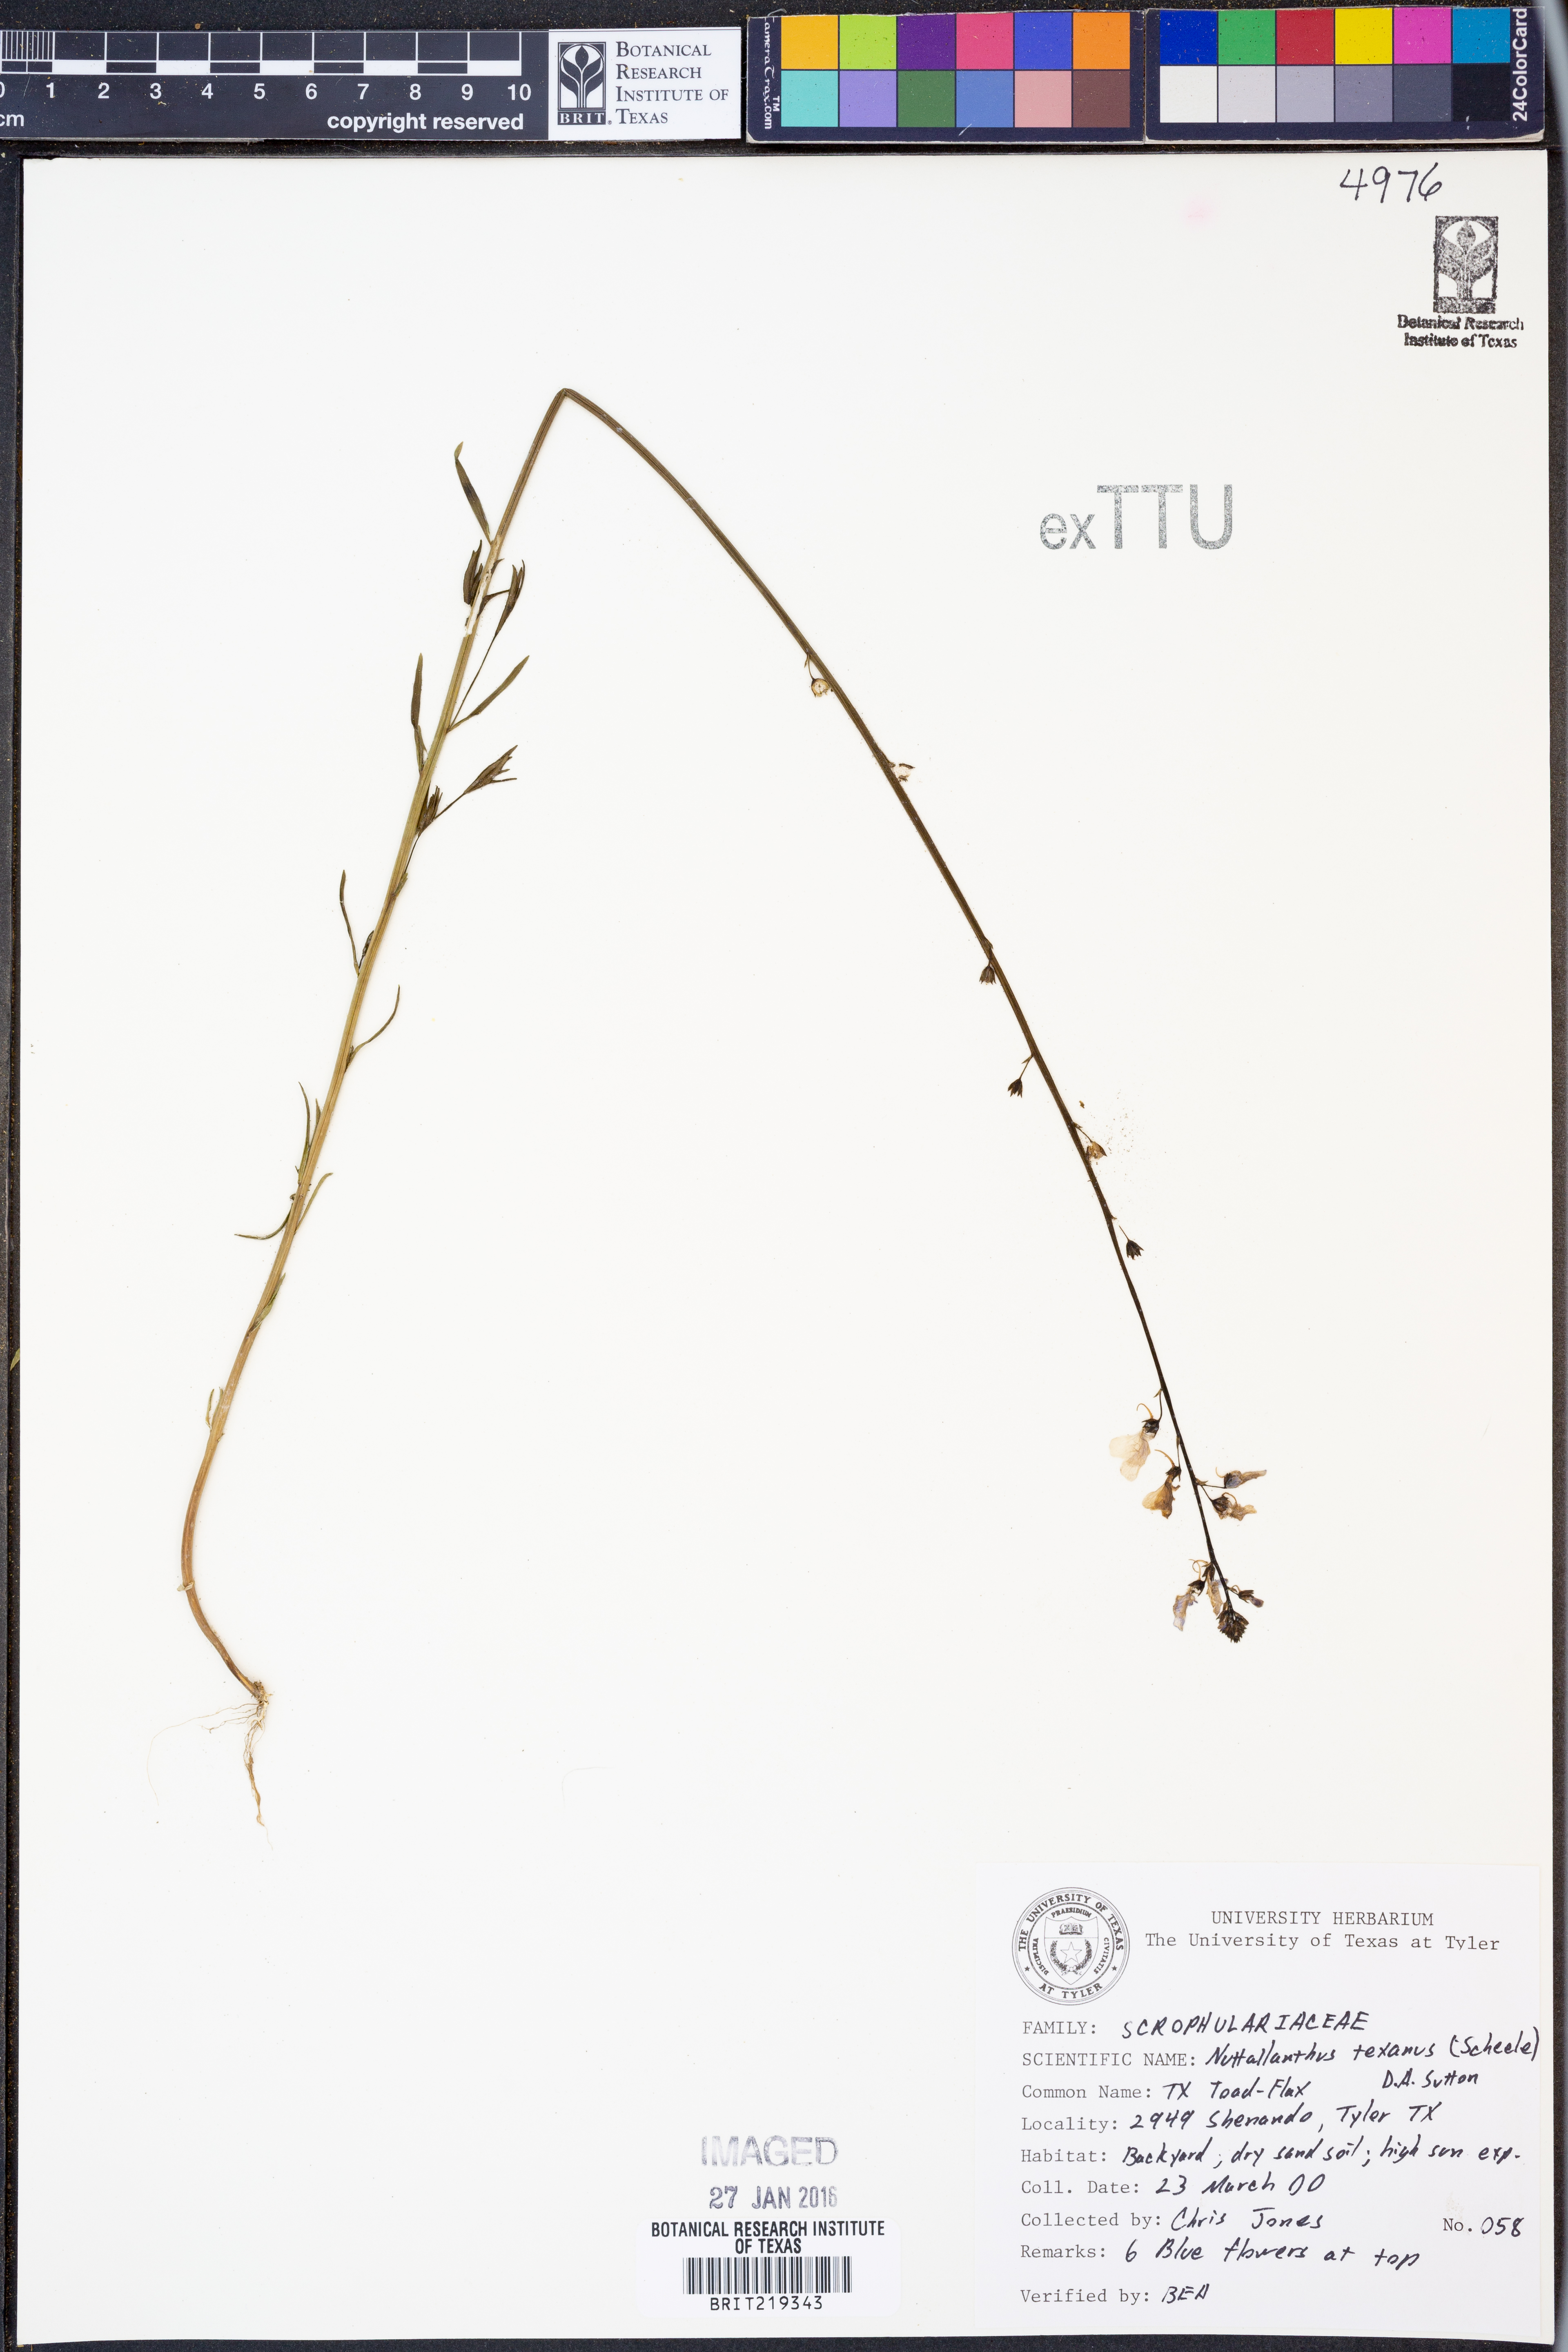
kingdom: Plantae
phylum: Tracheophyta
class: Magnoliopsida
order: Lamiales
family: Plantaginaceae
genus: Nuttallanthus
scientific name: Nuttallanthus texanus
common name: Texas toadflax
